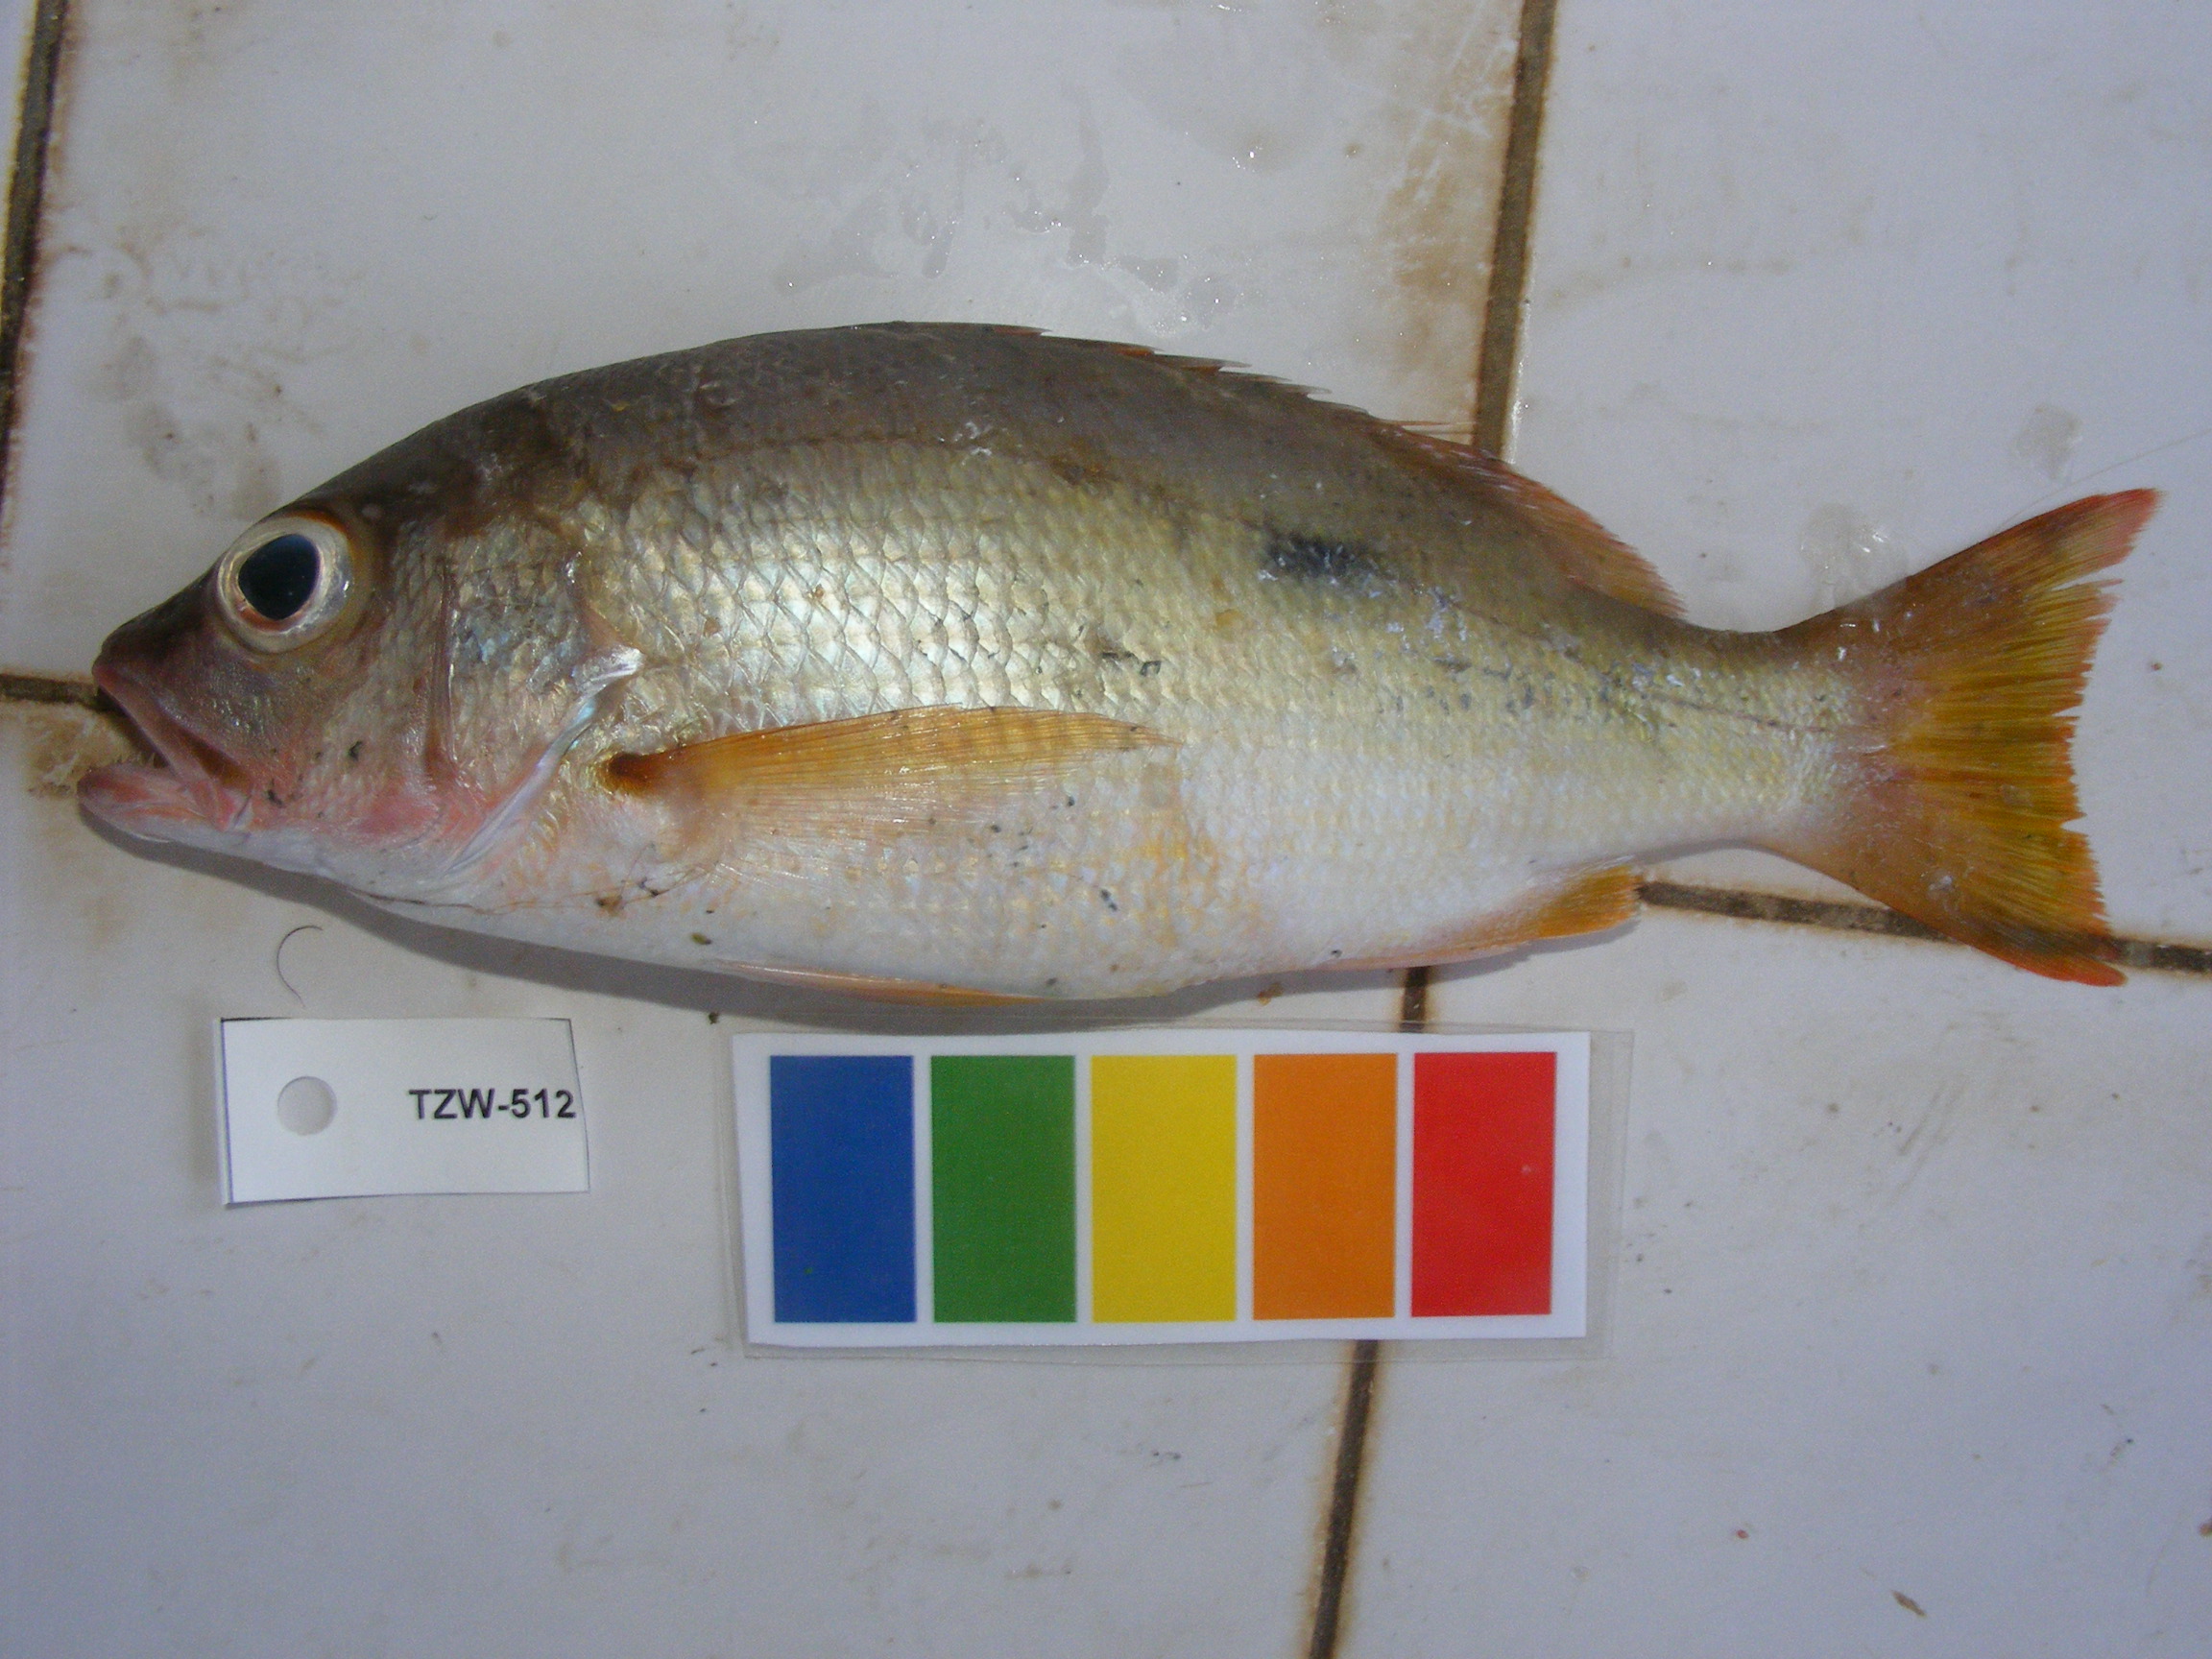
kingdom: Animalia
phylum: Chordata
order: Perciformes
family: Lutjanidae
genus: Lutjanus
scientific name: Lutjanus fulviflamma
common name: Blackspot snapper
